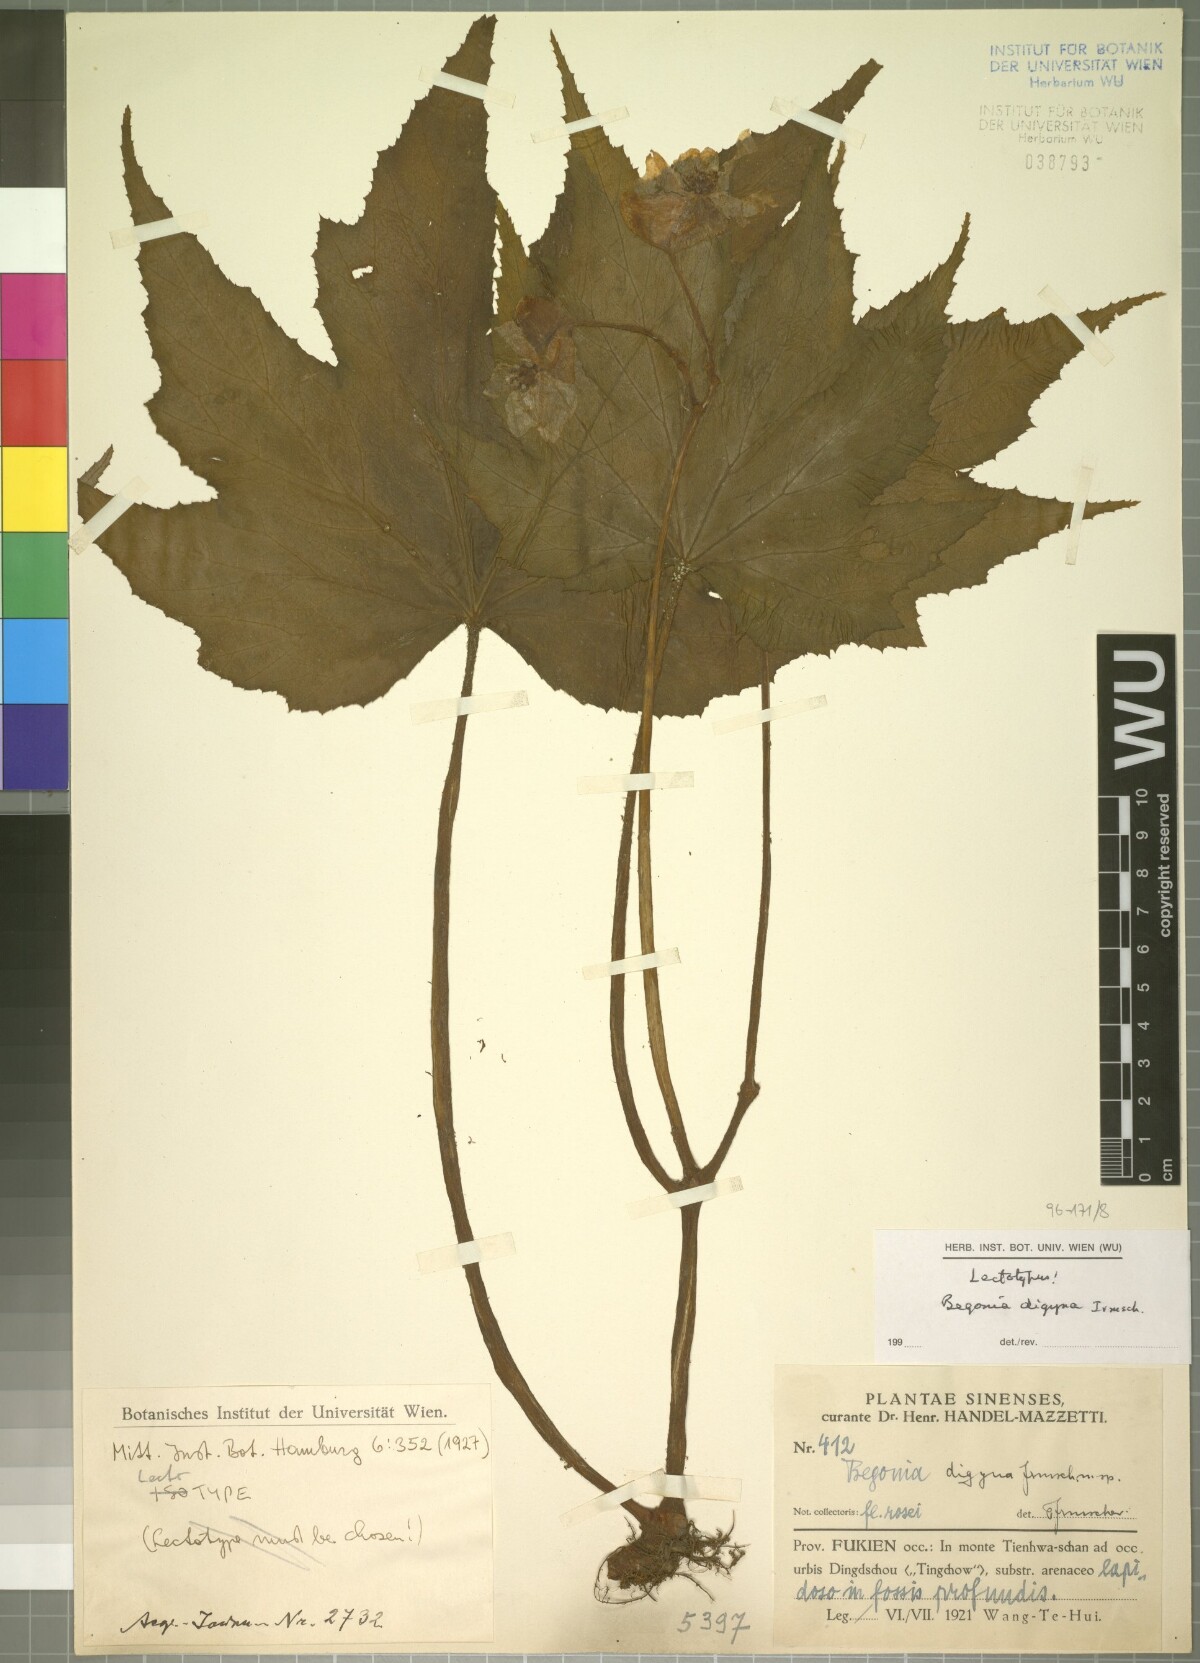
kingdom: Plantae
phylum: Tracheophyta
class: Magnoliopsida
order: Cucurbitales
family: Begoniaceae
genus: Begonia
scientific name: Begonia digyna
